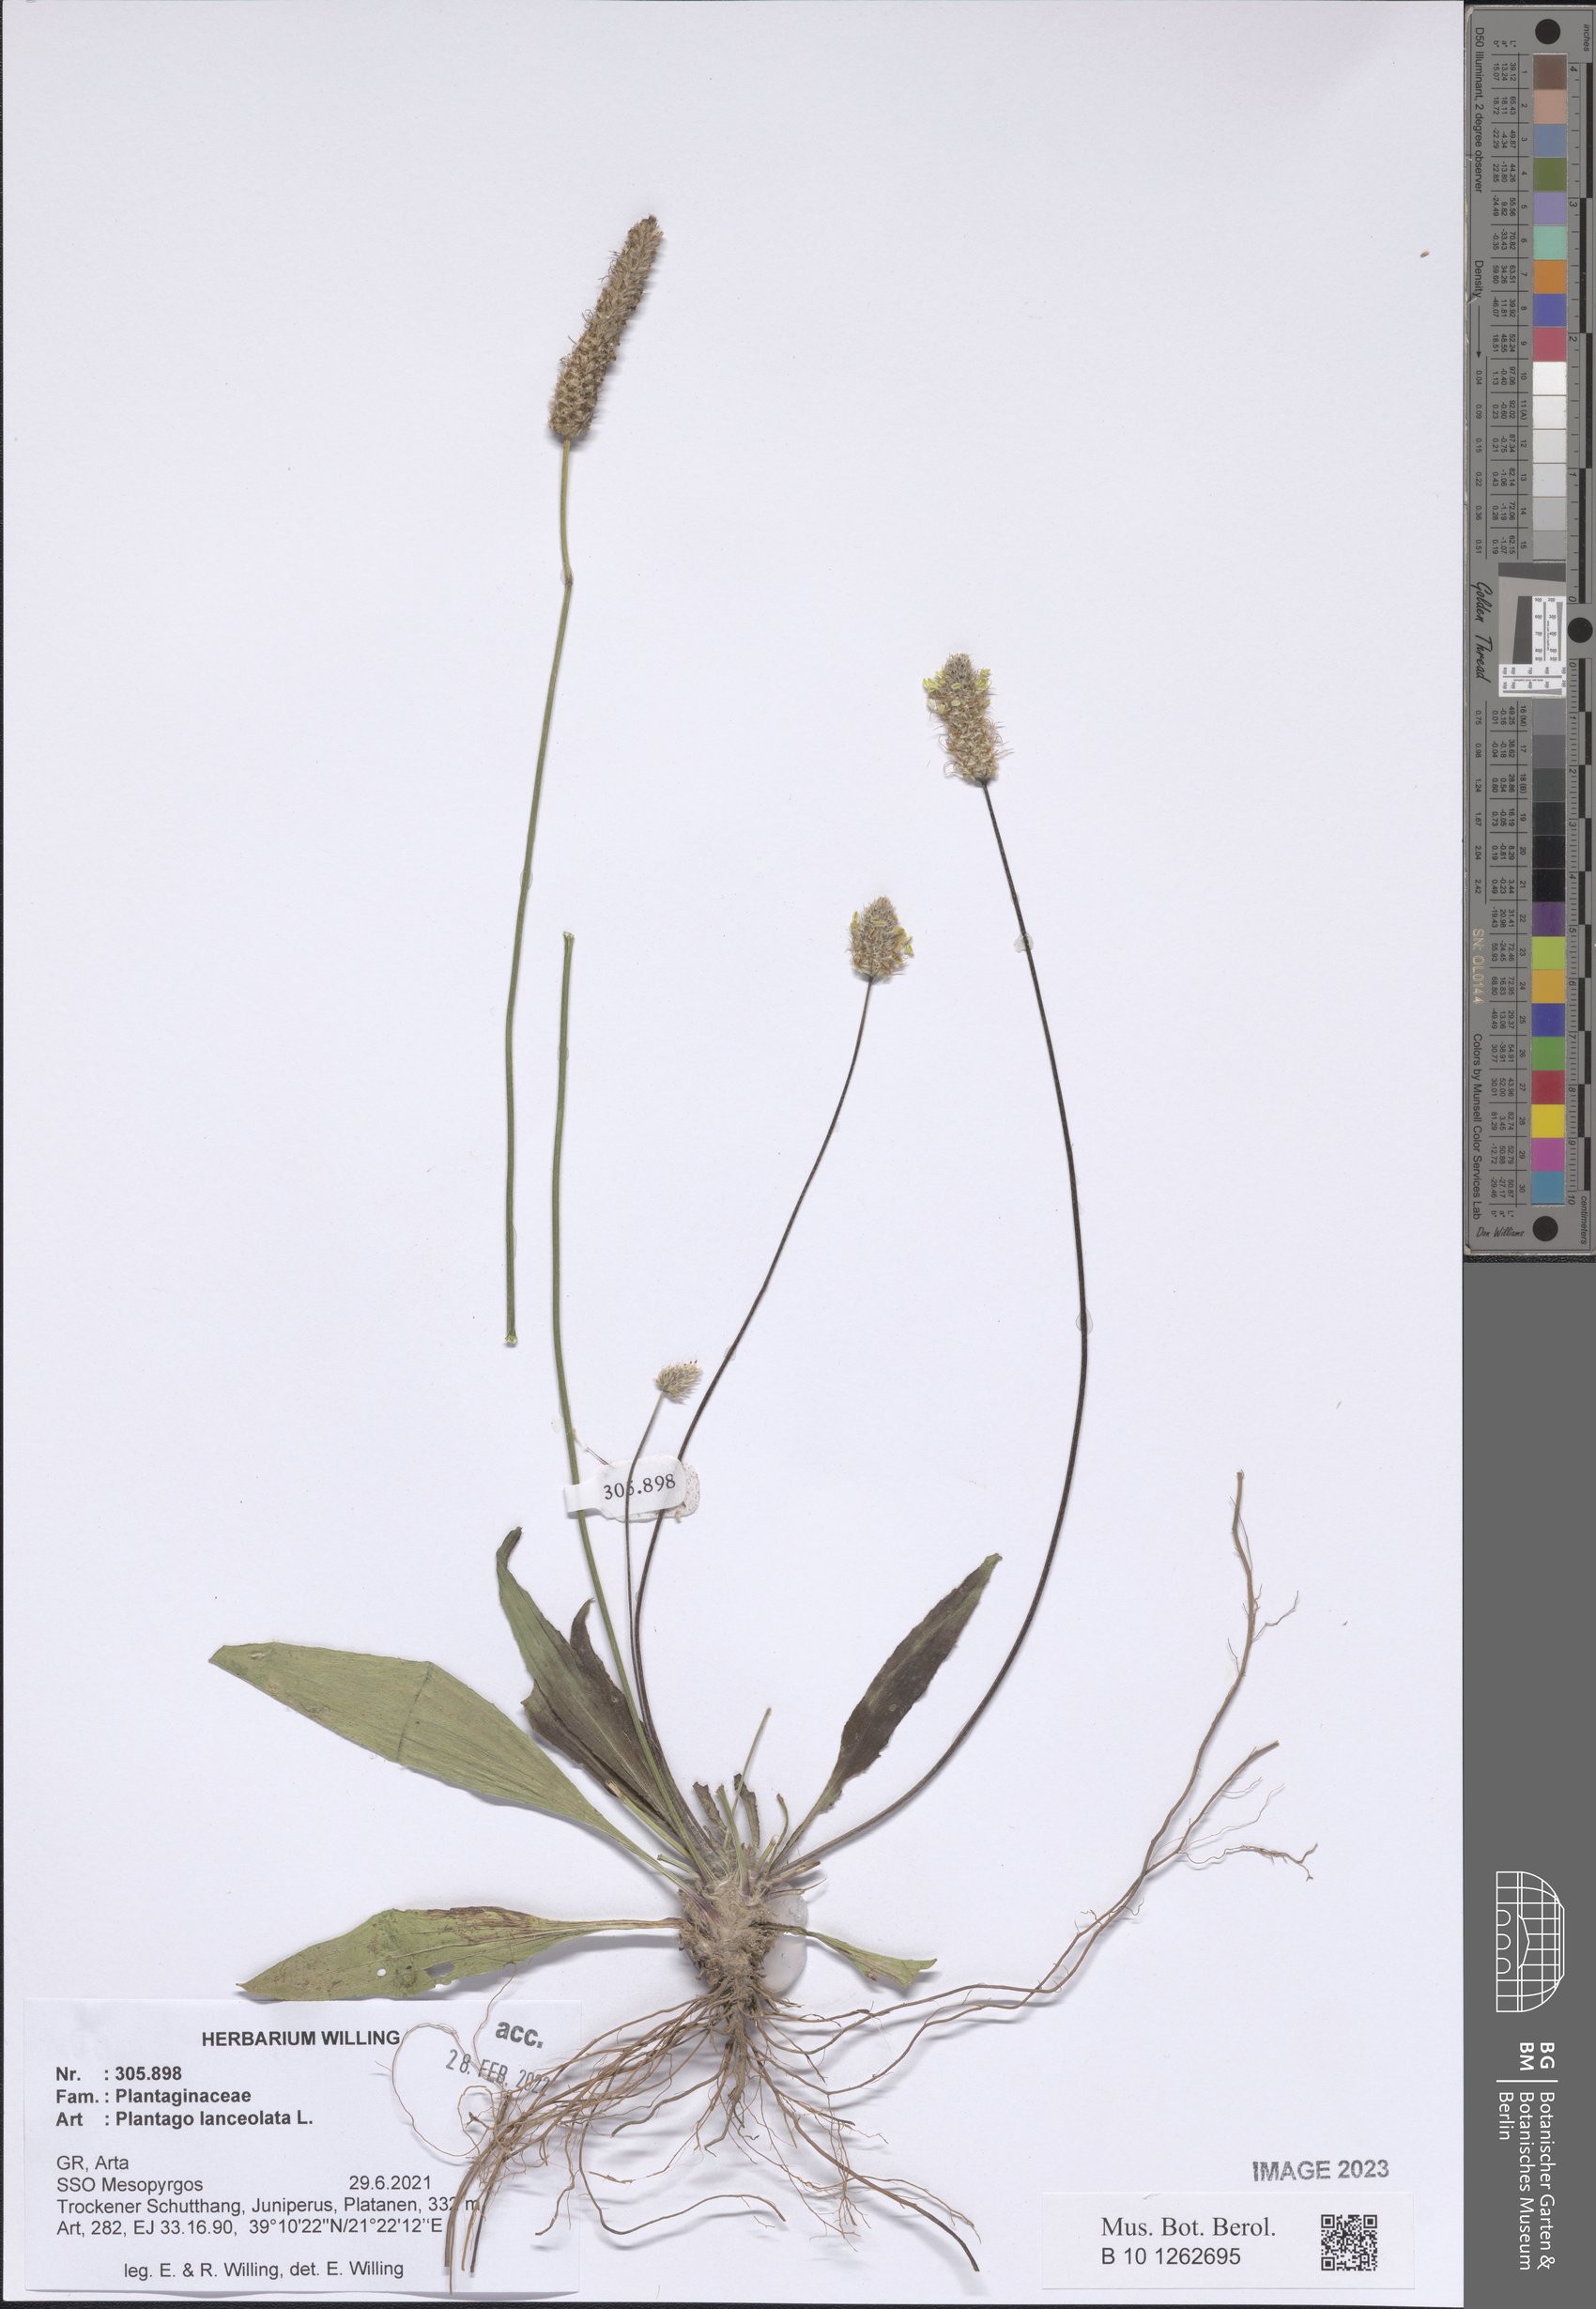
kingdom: Plantae
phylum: Tracheophyta
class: Magnoliopsida
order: Lamiales
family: Plantaginaceae
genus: Plantago
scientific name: Plantago lanceolata
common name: Ribwort plantain
